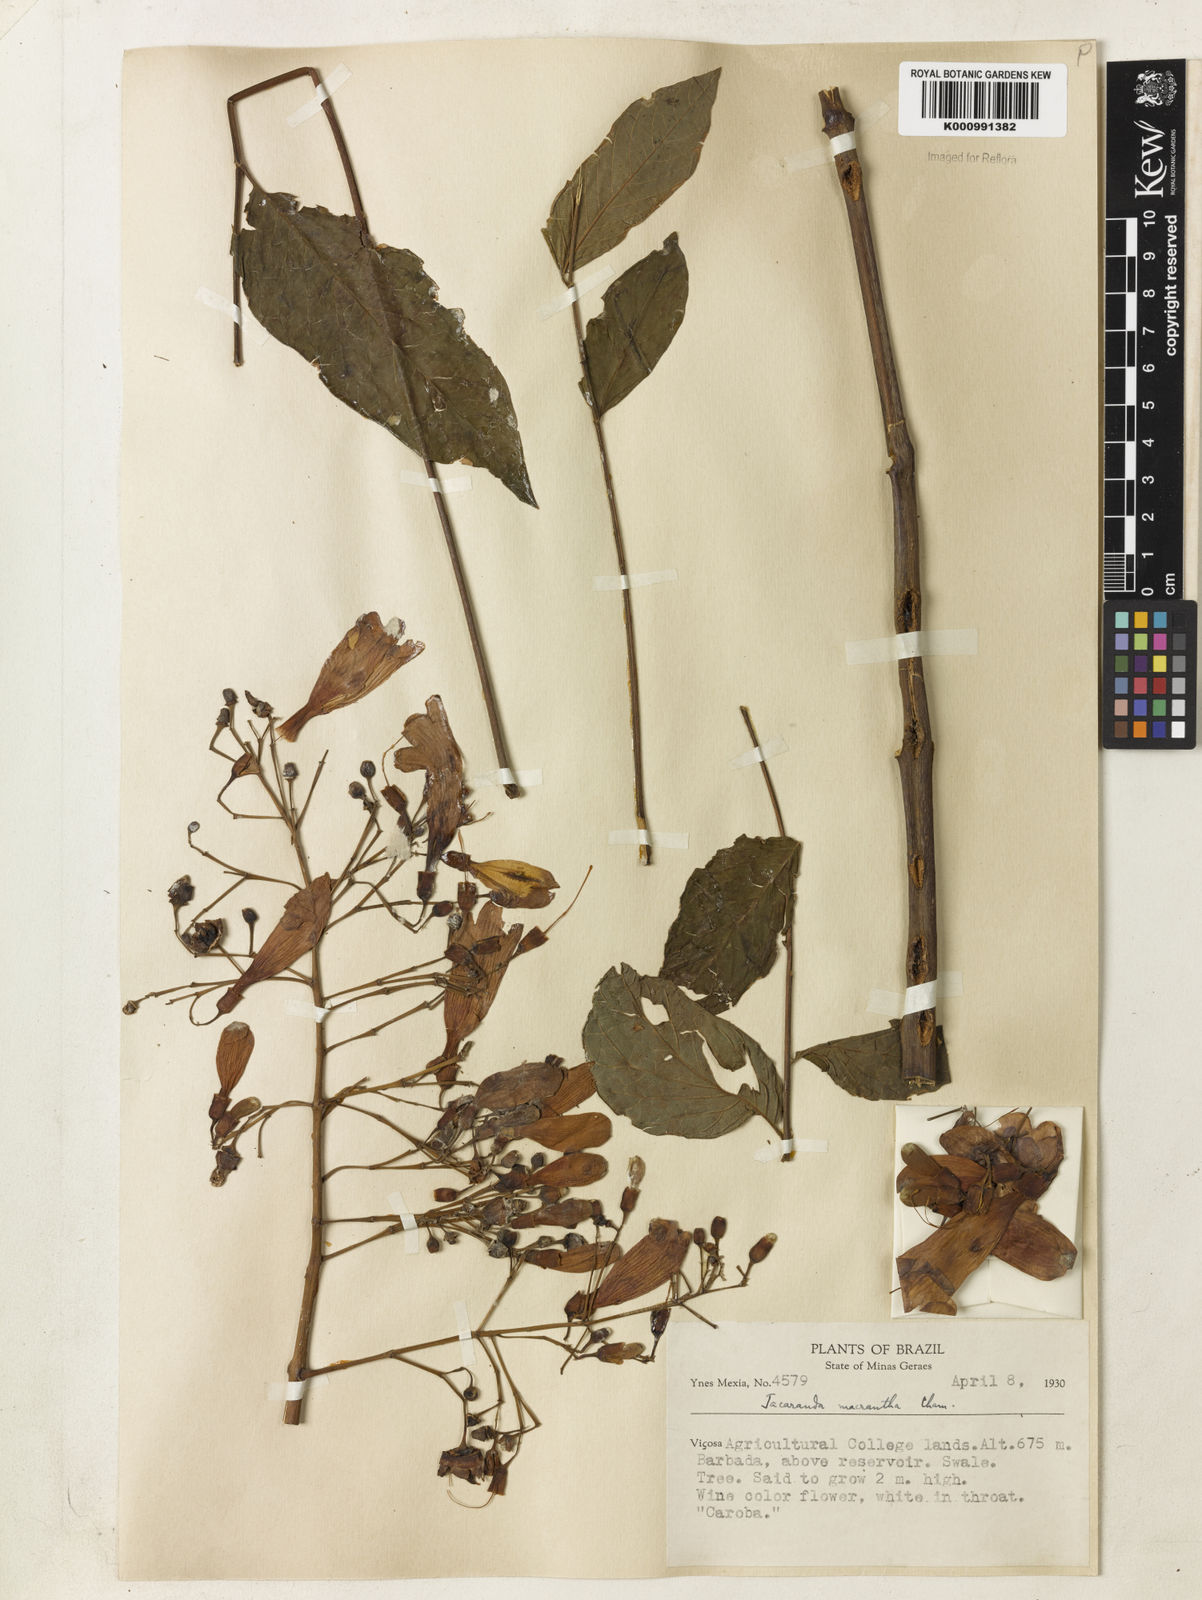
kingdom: Plantae
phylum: Tracheophyta
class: Magnoliopsida
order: Lamiales
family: Bignoniaceae
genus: Jacaranda
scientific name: Jacaranda micrantha
